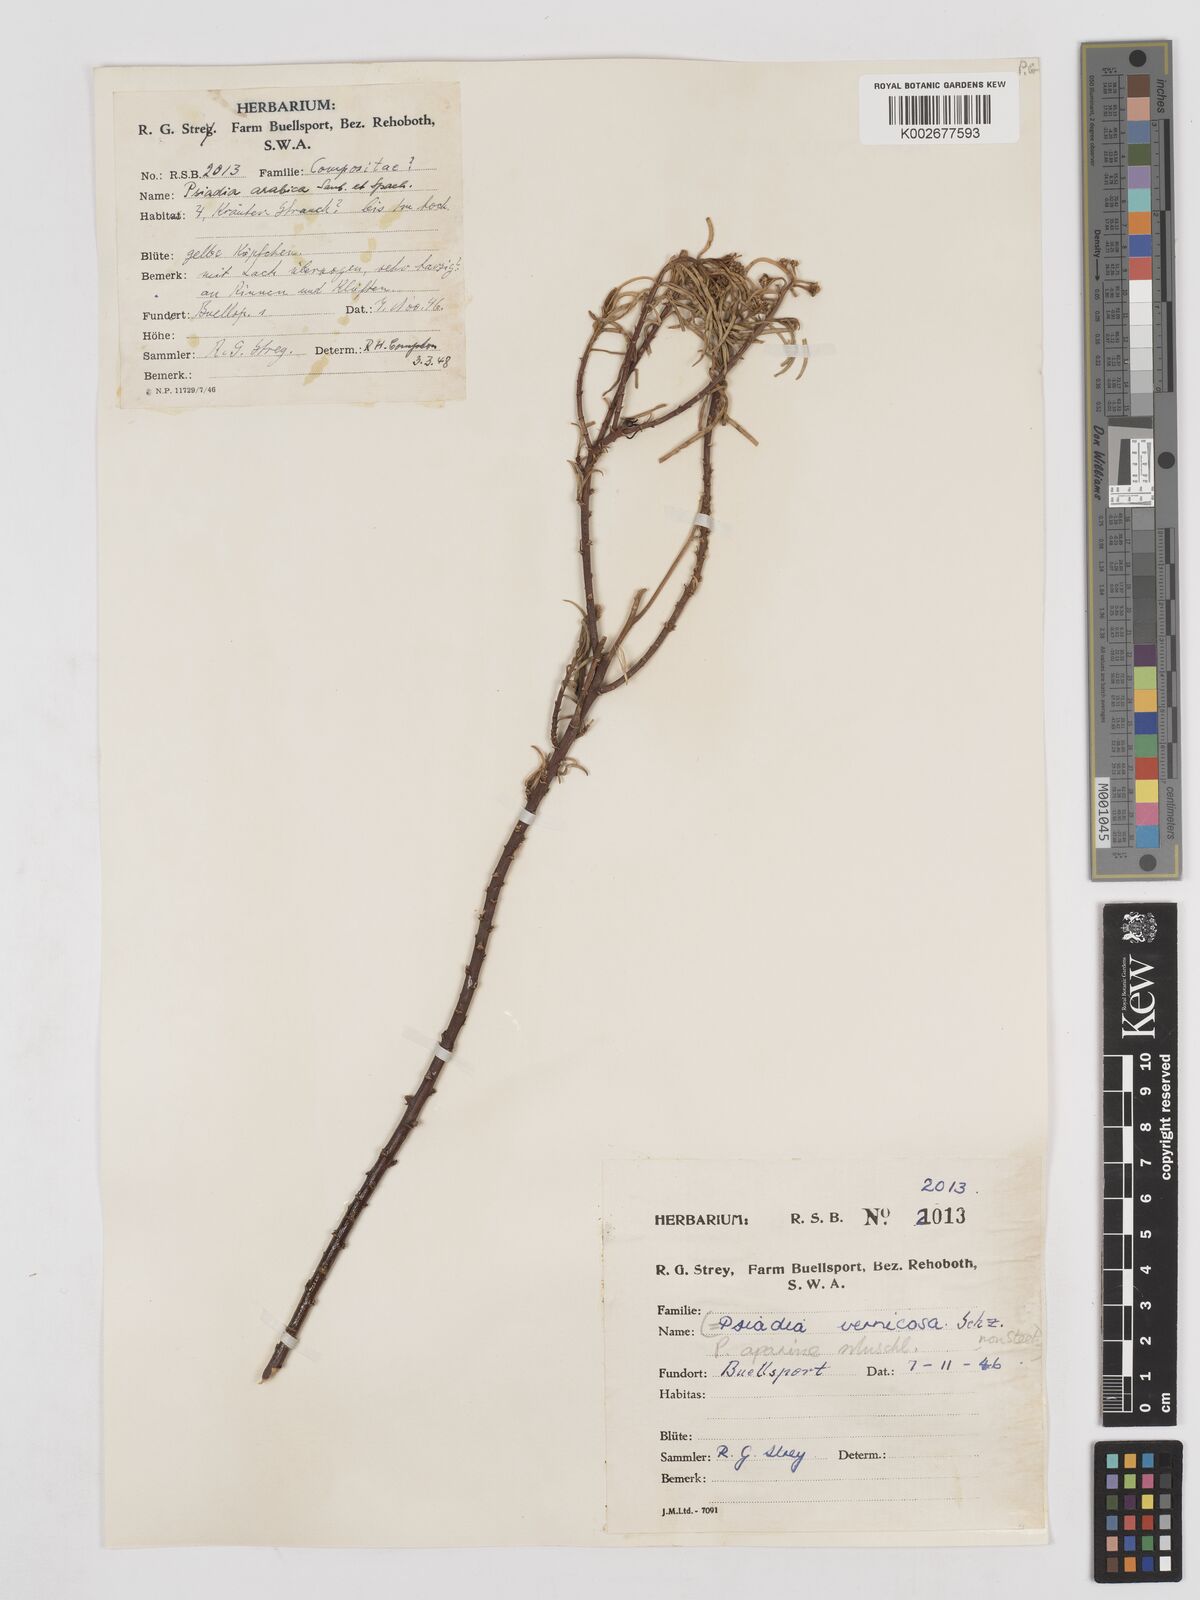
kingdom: Plantae
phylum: Tracheophyta
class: Magnoliopsida
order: Asterales
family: Asteraceae
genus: Psiadia
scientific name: Psiadia punctulata
